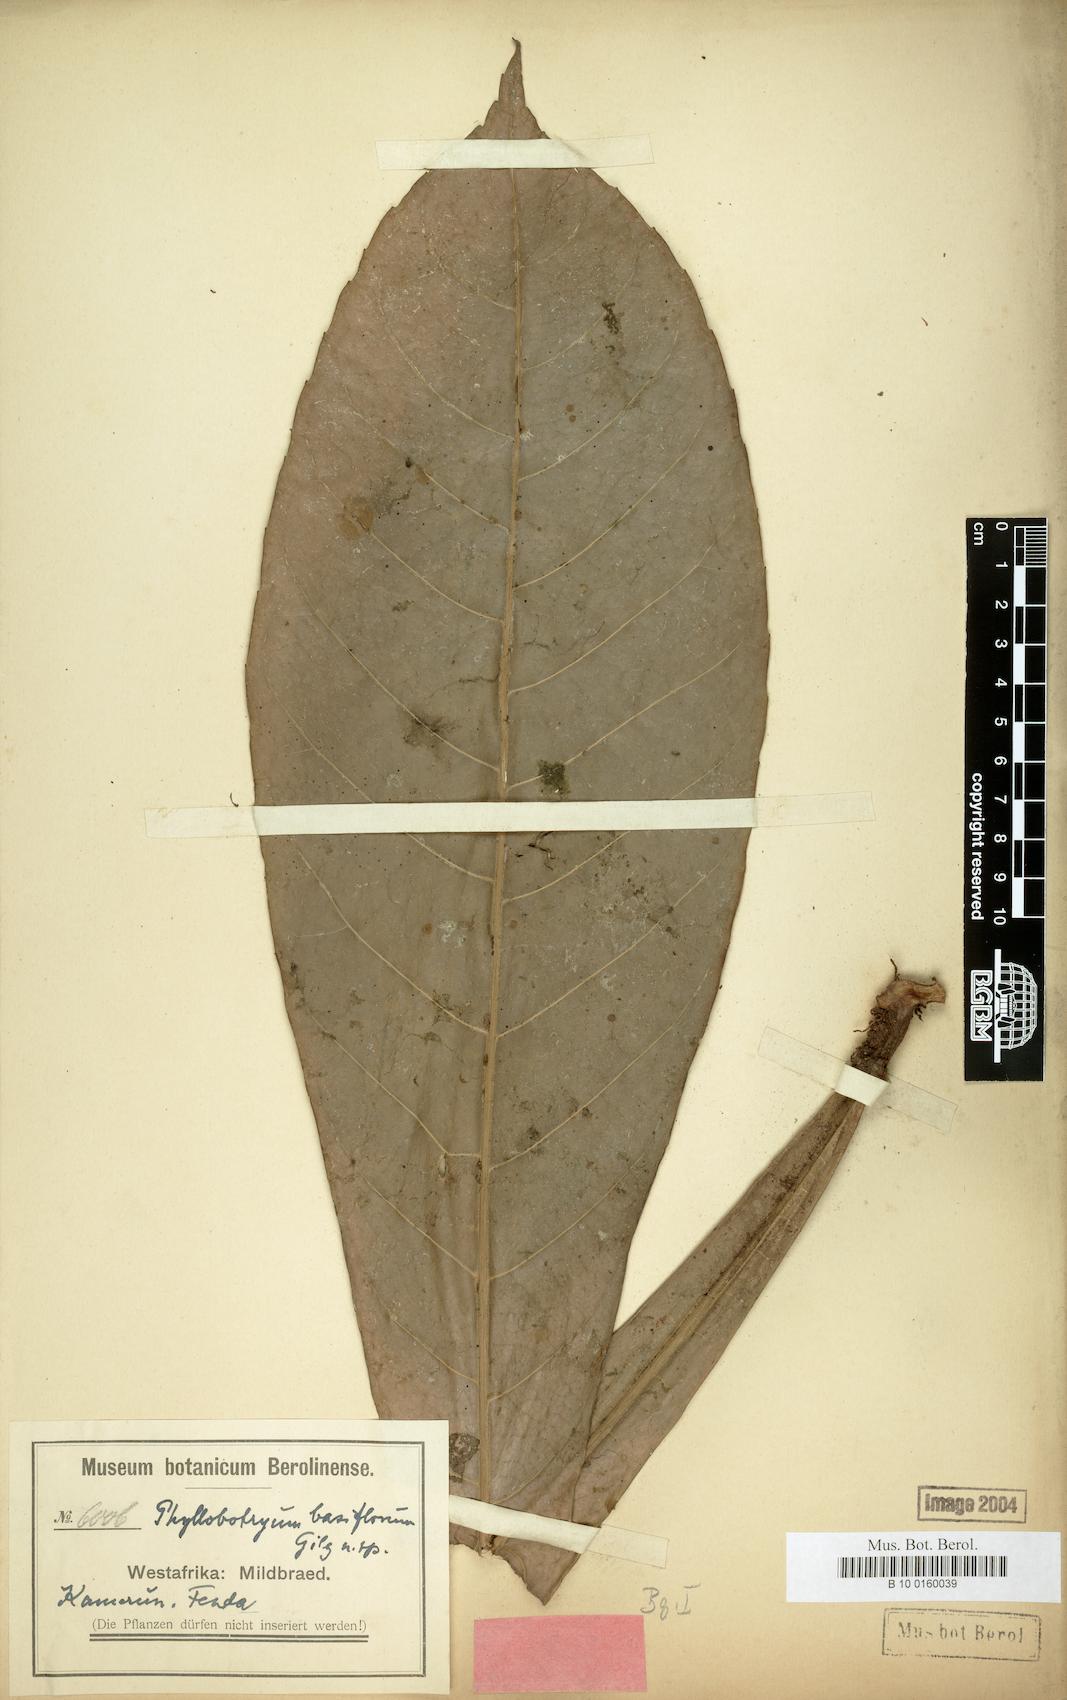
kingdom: Plantae
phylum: Tracheophyta
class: Magnoliopsida
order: Malpighiales
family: Salicaceae
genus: Phyllobotryon
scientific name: Phyllobotryon spathulatum
